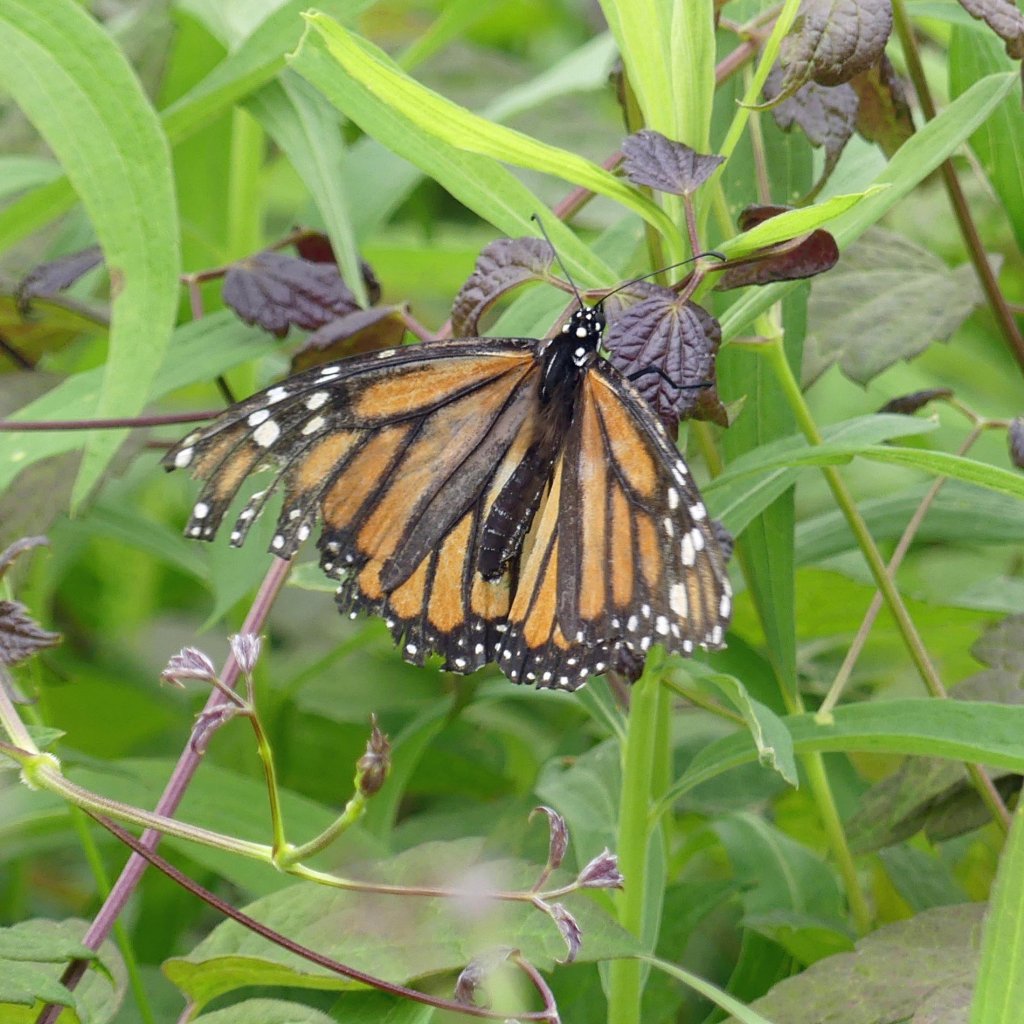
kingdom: Animalia
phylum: Arthropoda
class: Insecta
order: Lepidoptera
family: Nymphalidae
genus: Danaus
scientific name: Danaus plexippus
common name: Monarch
